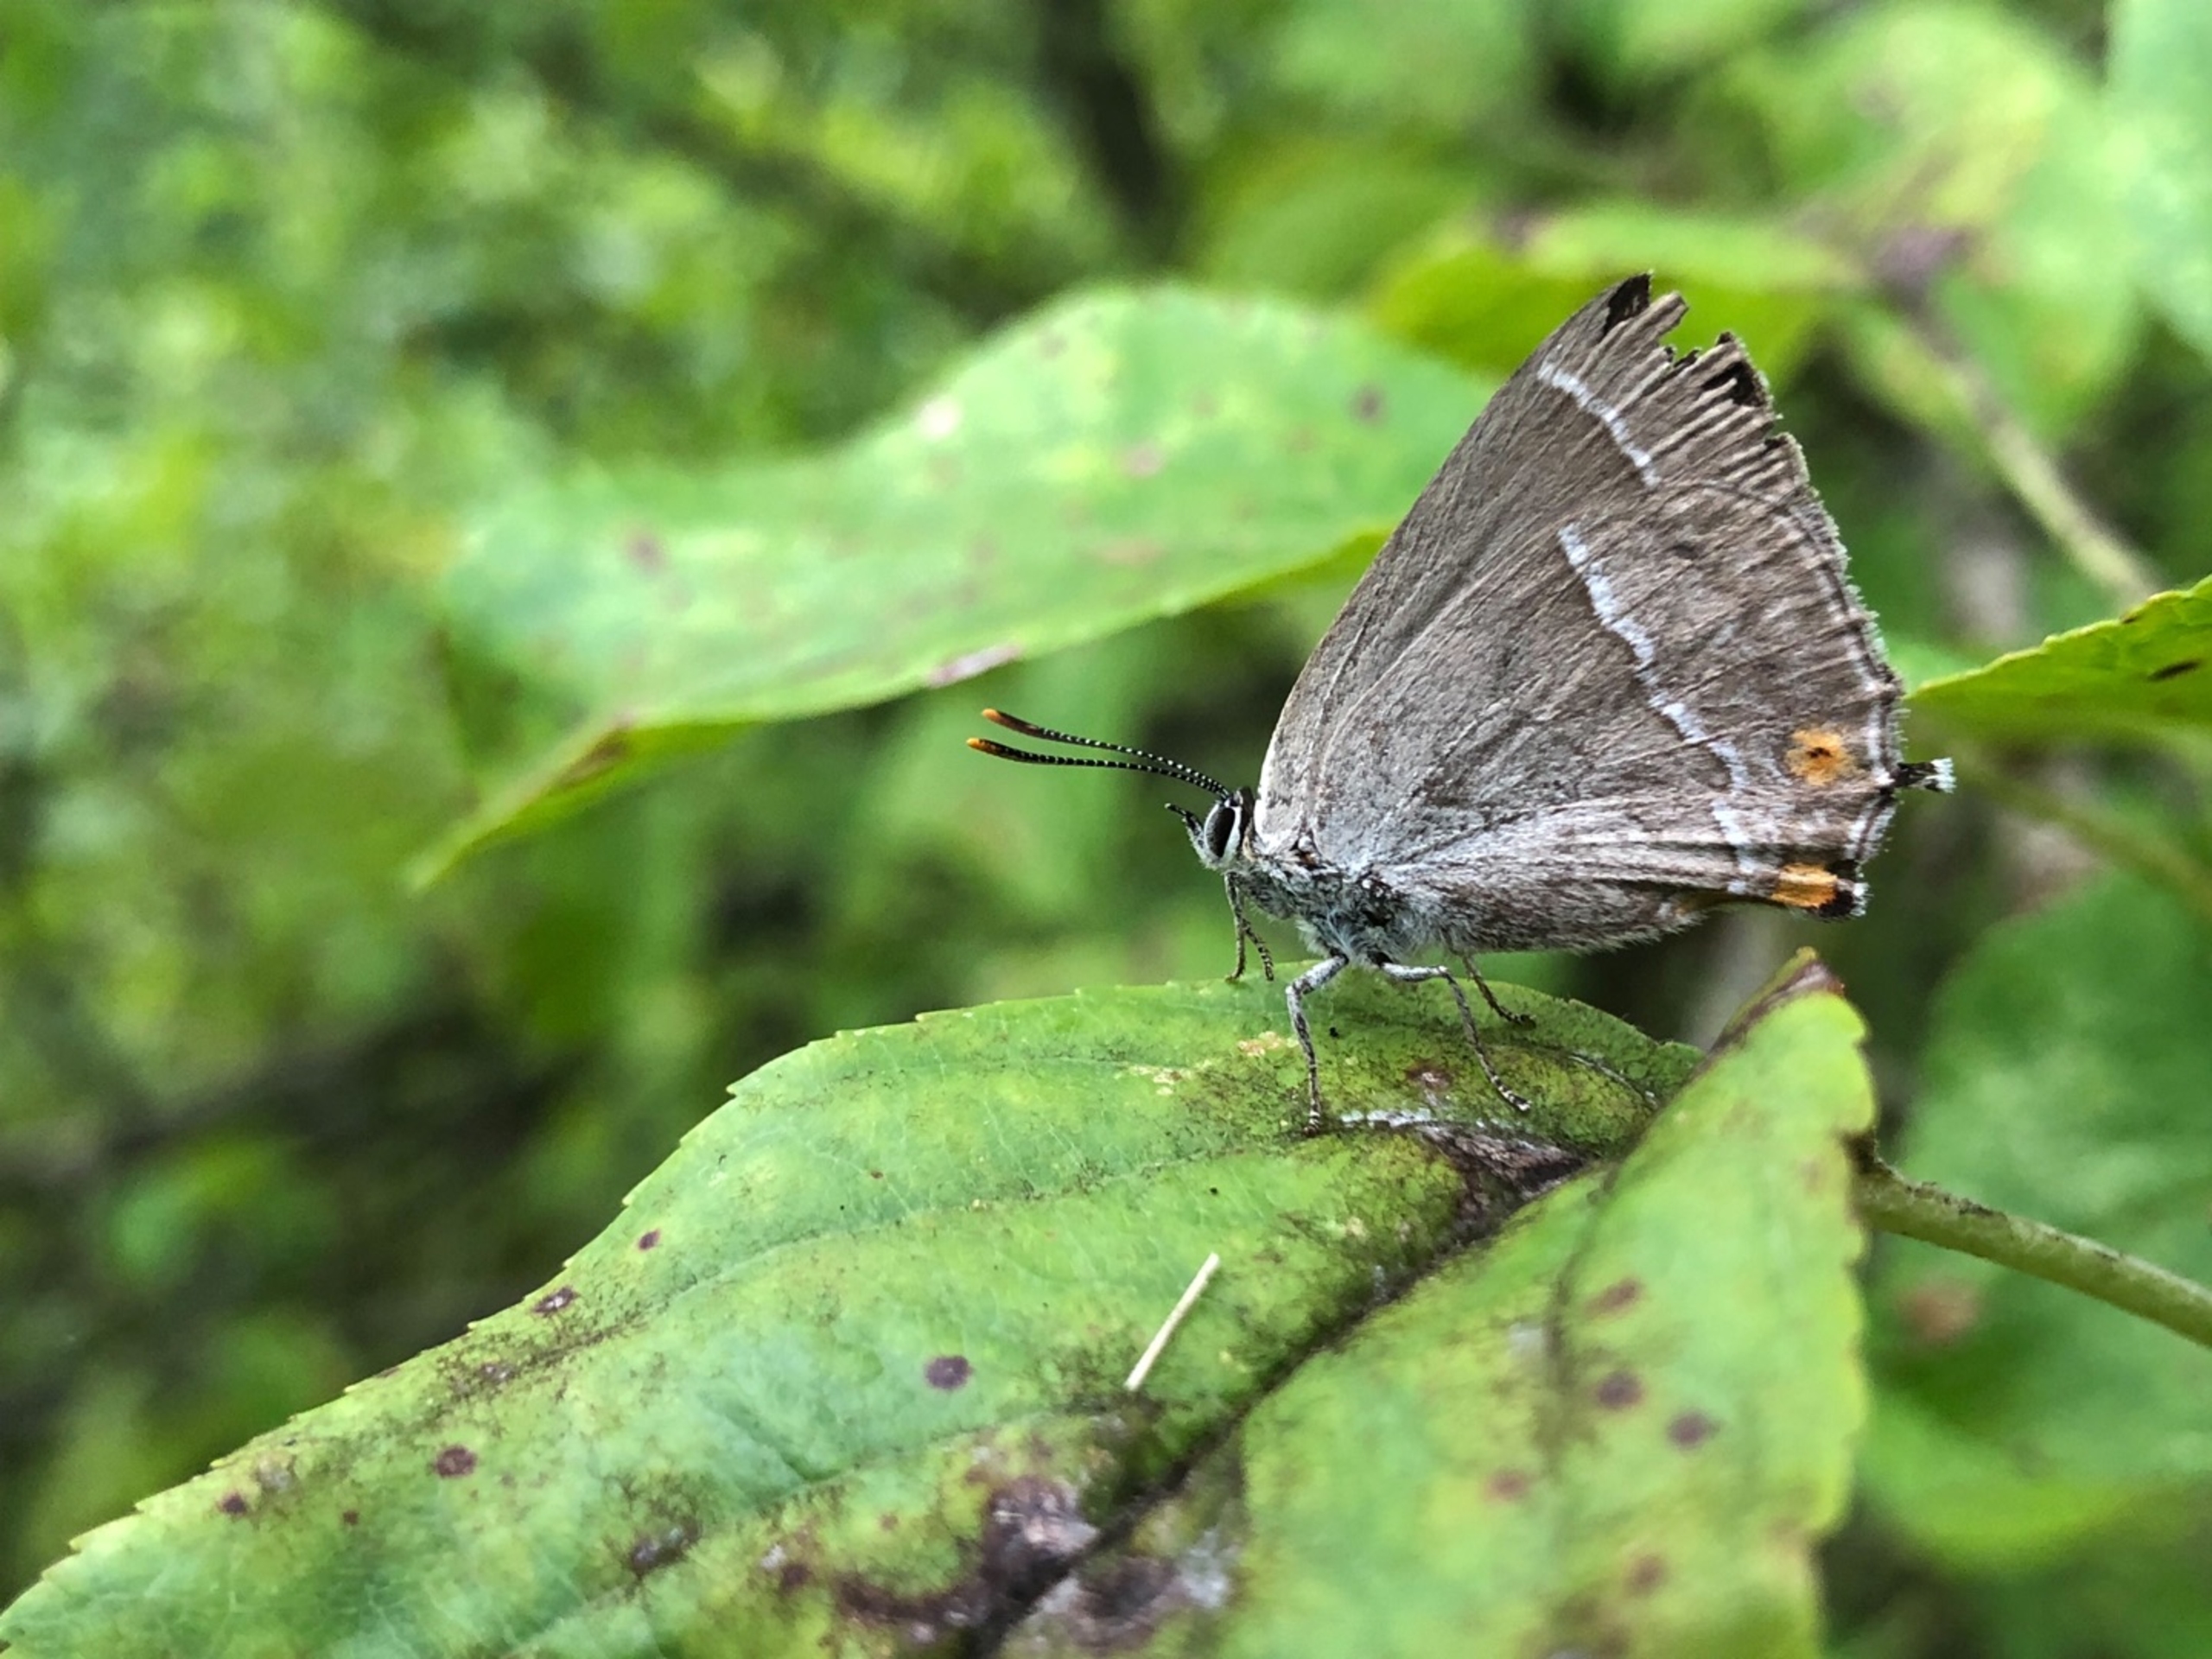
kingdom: Animalia
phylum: Arthropoda
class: Insecta
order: Lepidoptera
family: Lycaenidae
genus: Quercusia
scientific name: Quercusia quercus
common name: Blåhale
